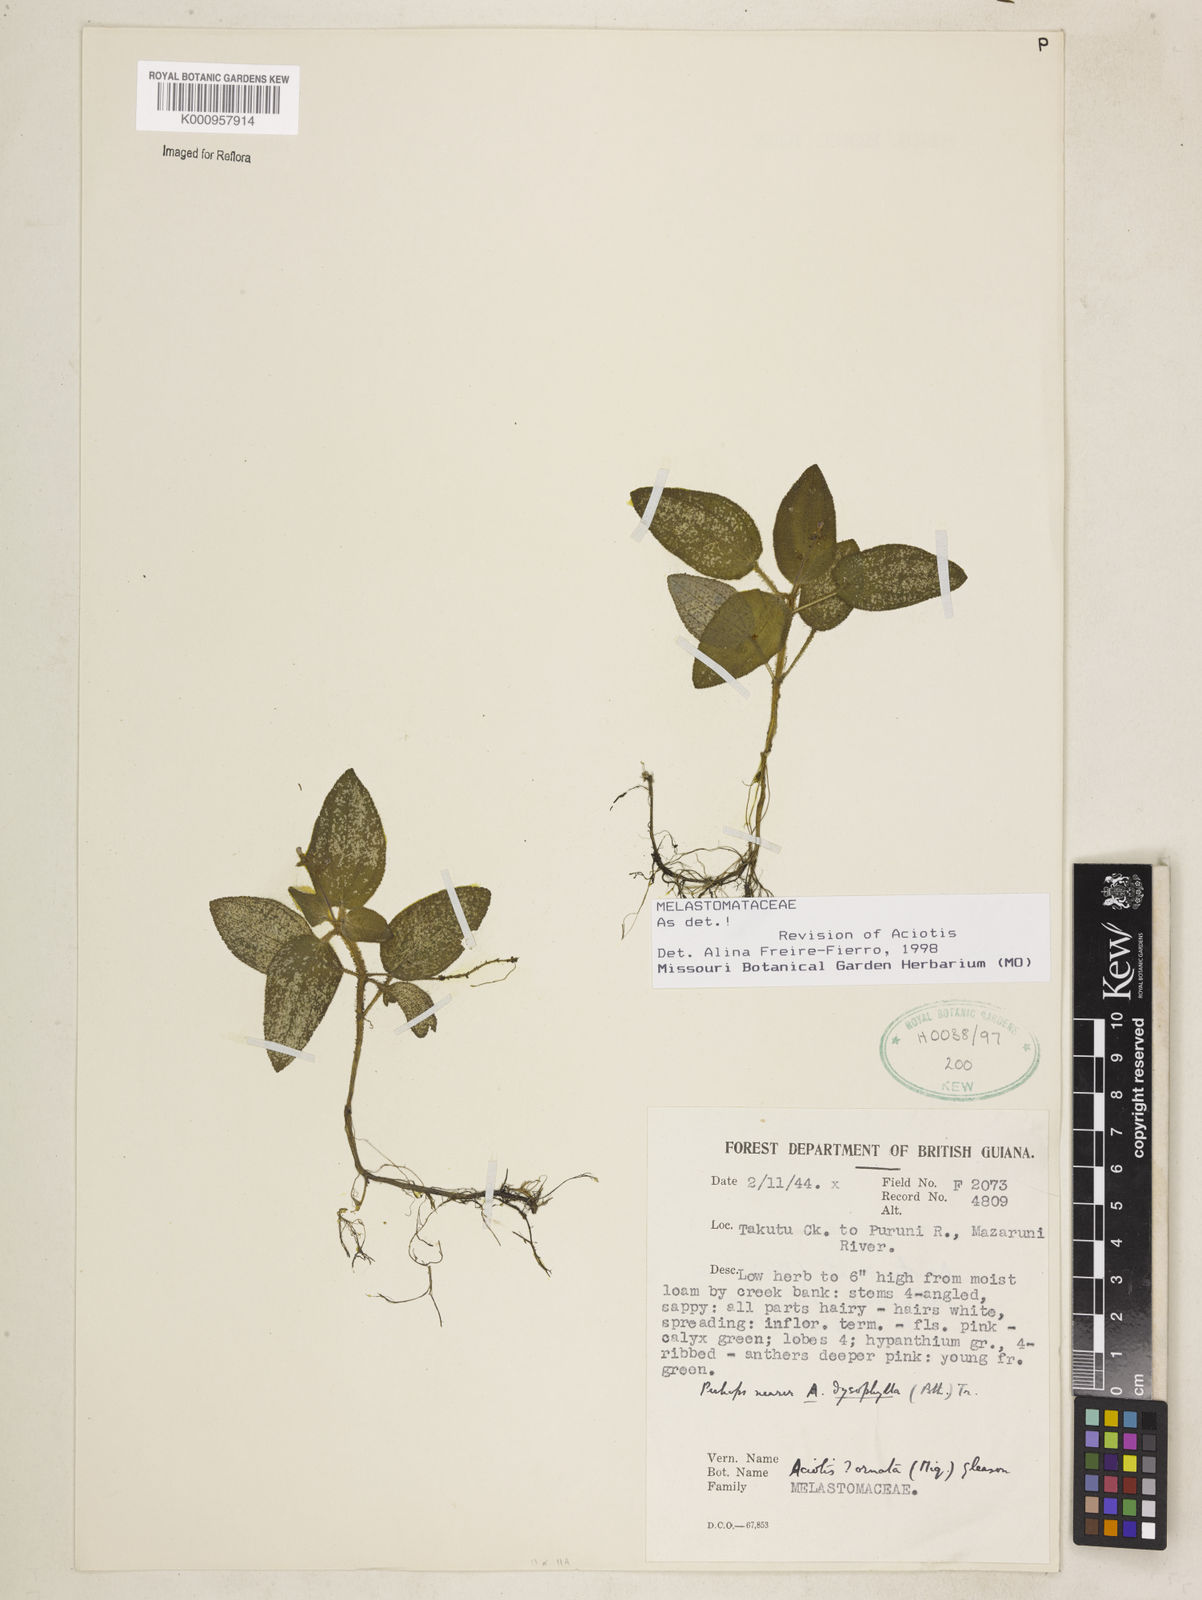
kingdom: Plantae
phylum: Tracheophyta
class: Magnoliopsida
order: Myrtales
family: Melastomataceae
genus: Aciotis
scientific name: Aciotis ornata
